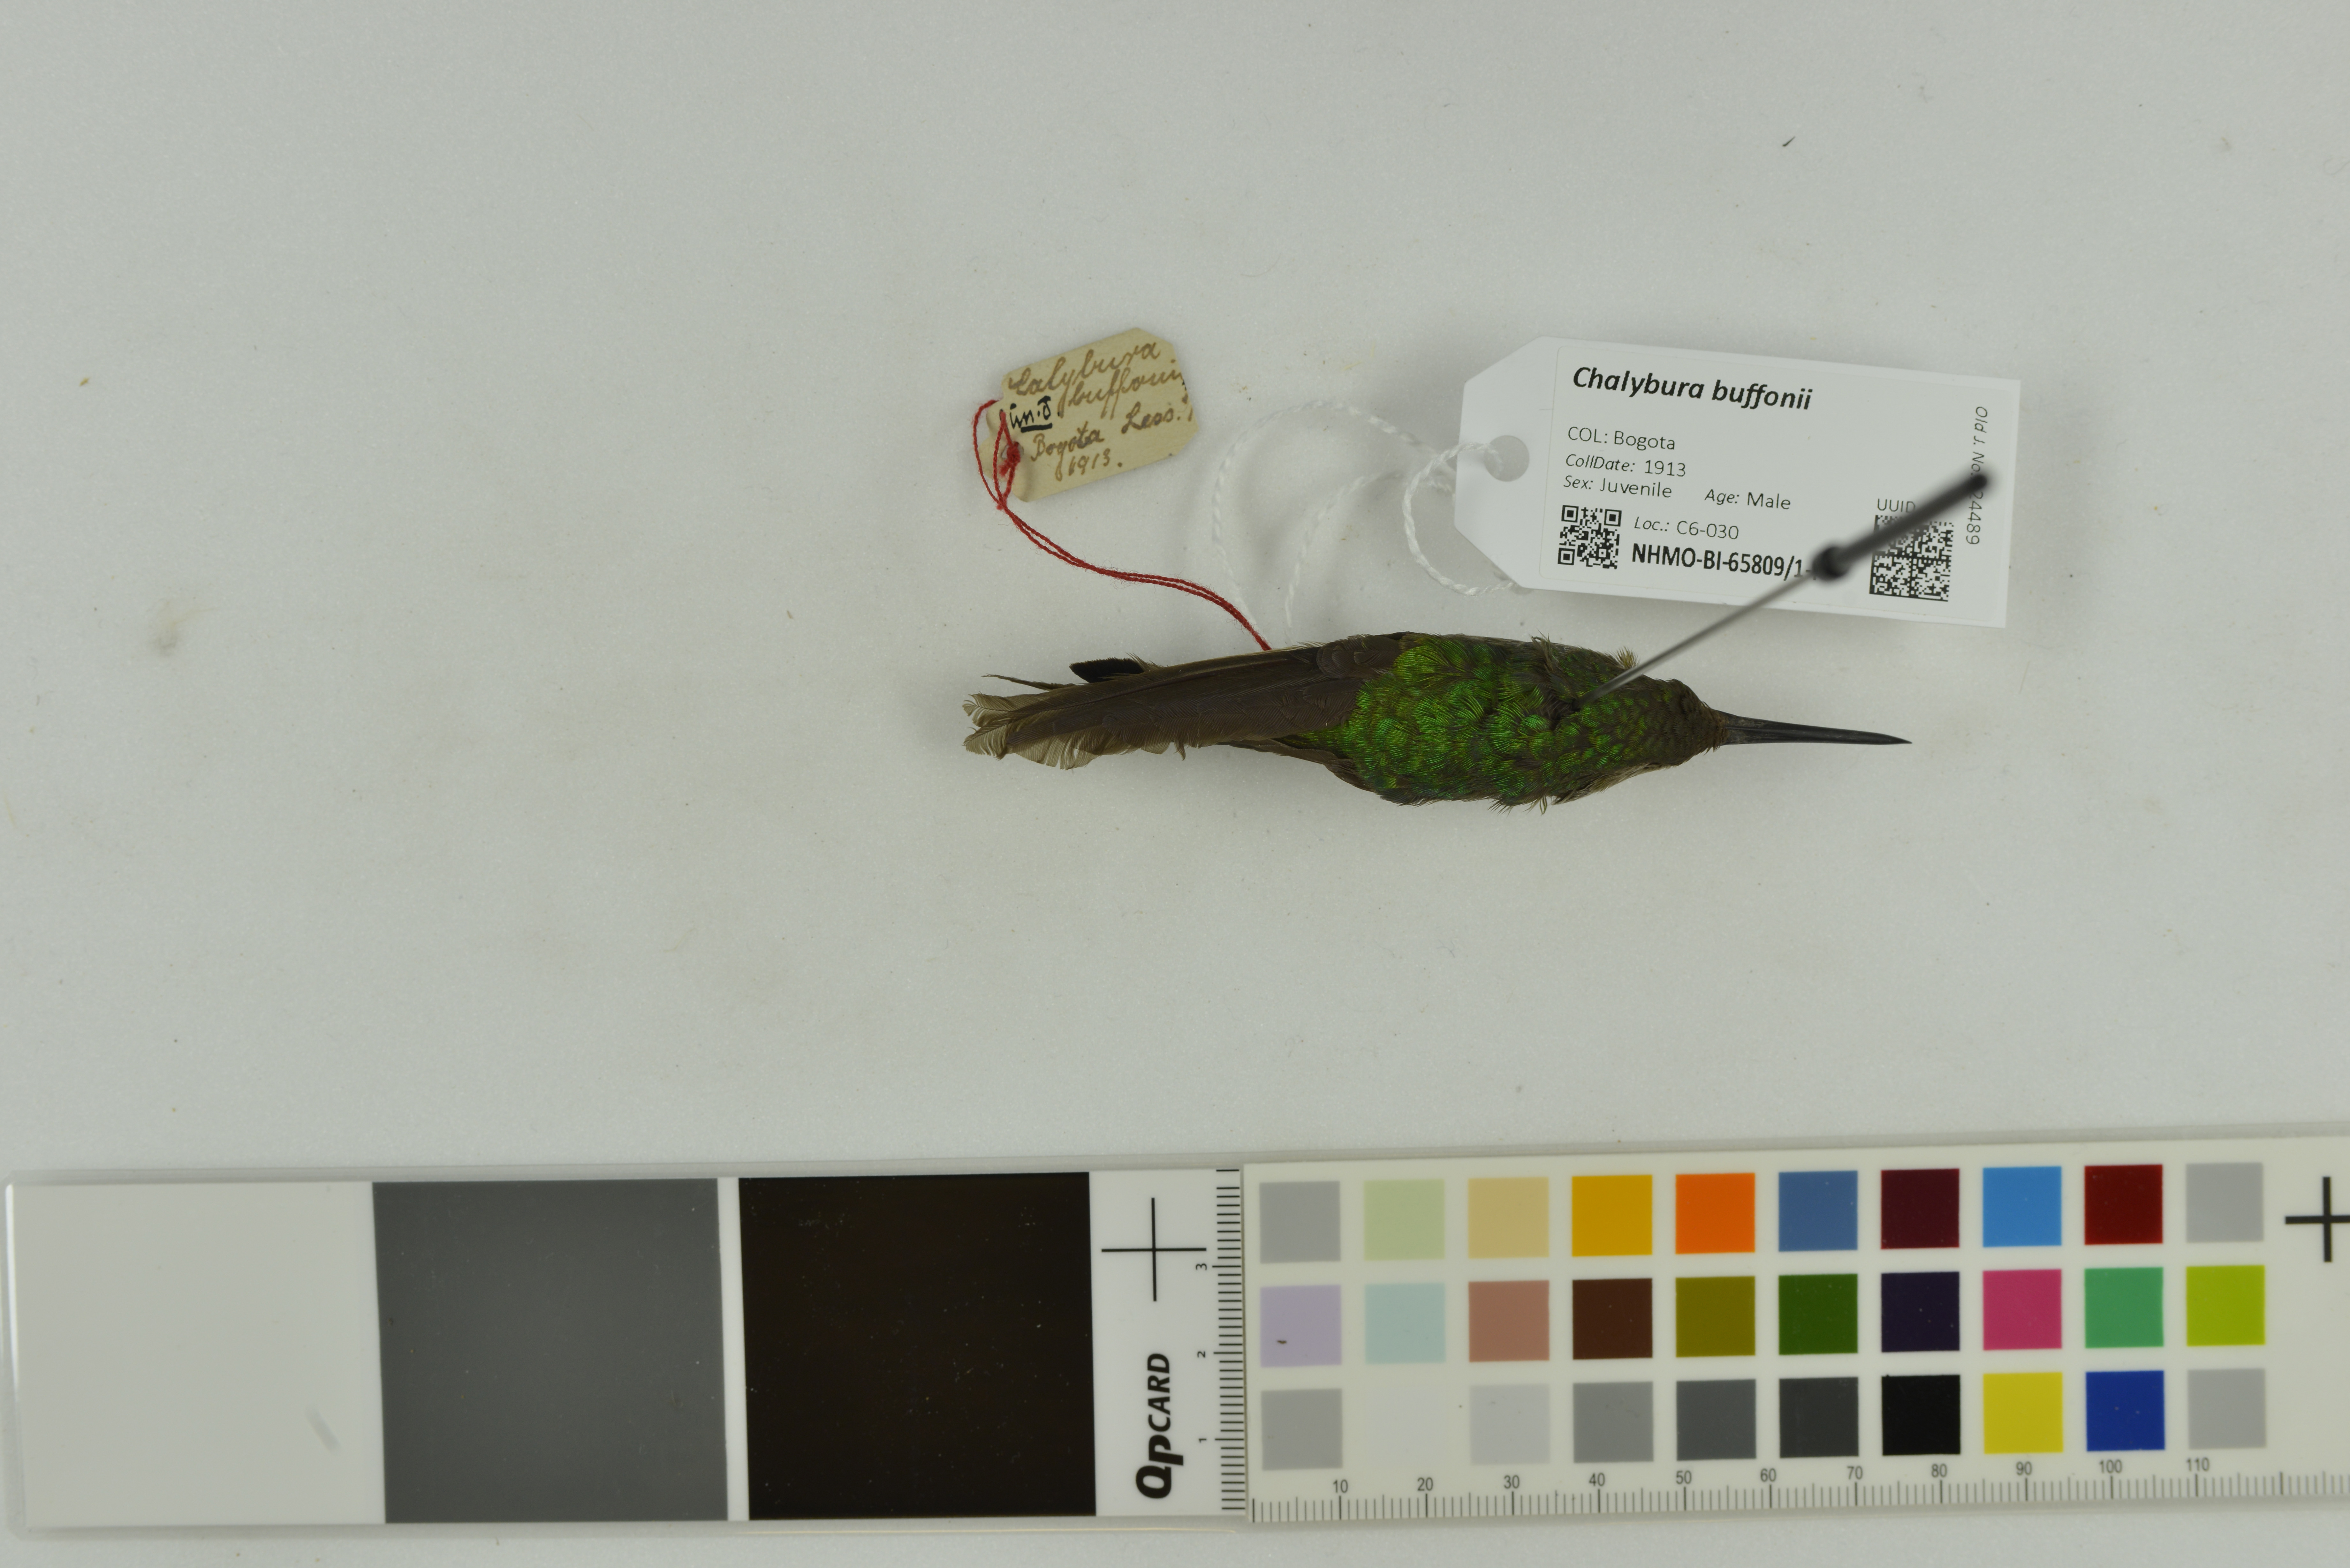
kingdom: Animalia
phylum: Chordata
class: Aves
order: Apodiformes
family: Trochilidae
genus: Chalybura
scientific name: Chalybura buffonii
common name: White-vented plumeleteer
